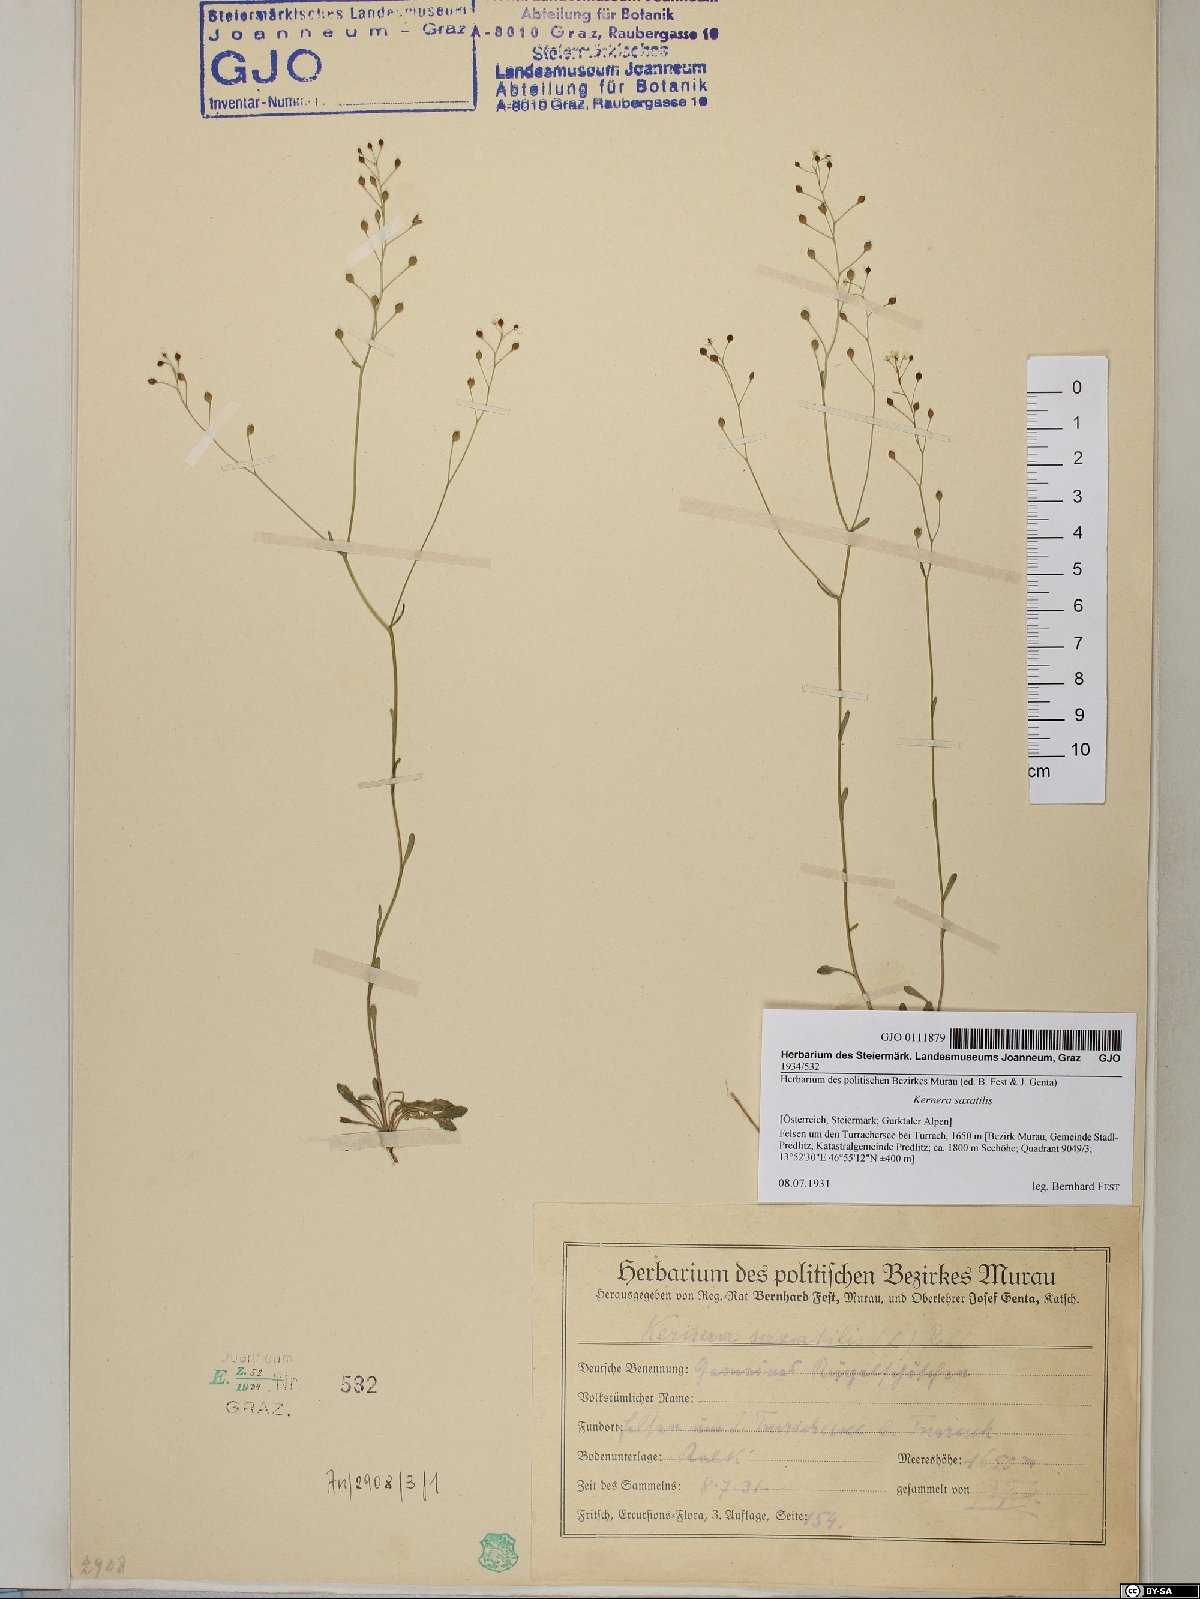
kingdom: Plantae
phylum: Tracheophyta
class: Magnoliopsida
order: Brassicales
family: Brassicaceae
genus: Kernera
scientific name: Kernera saxatilis
